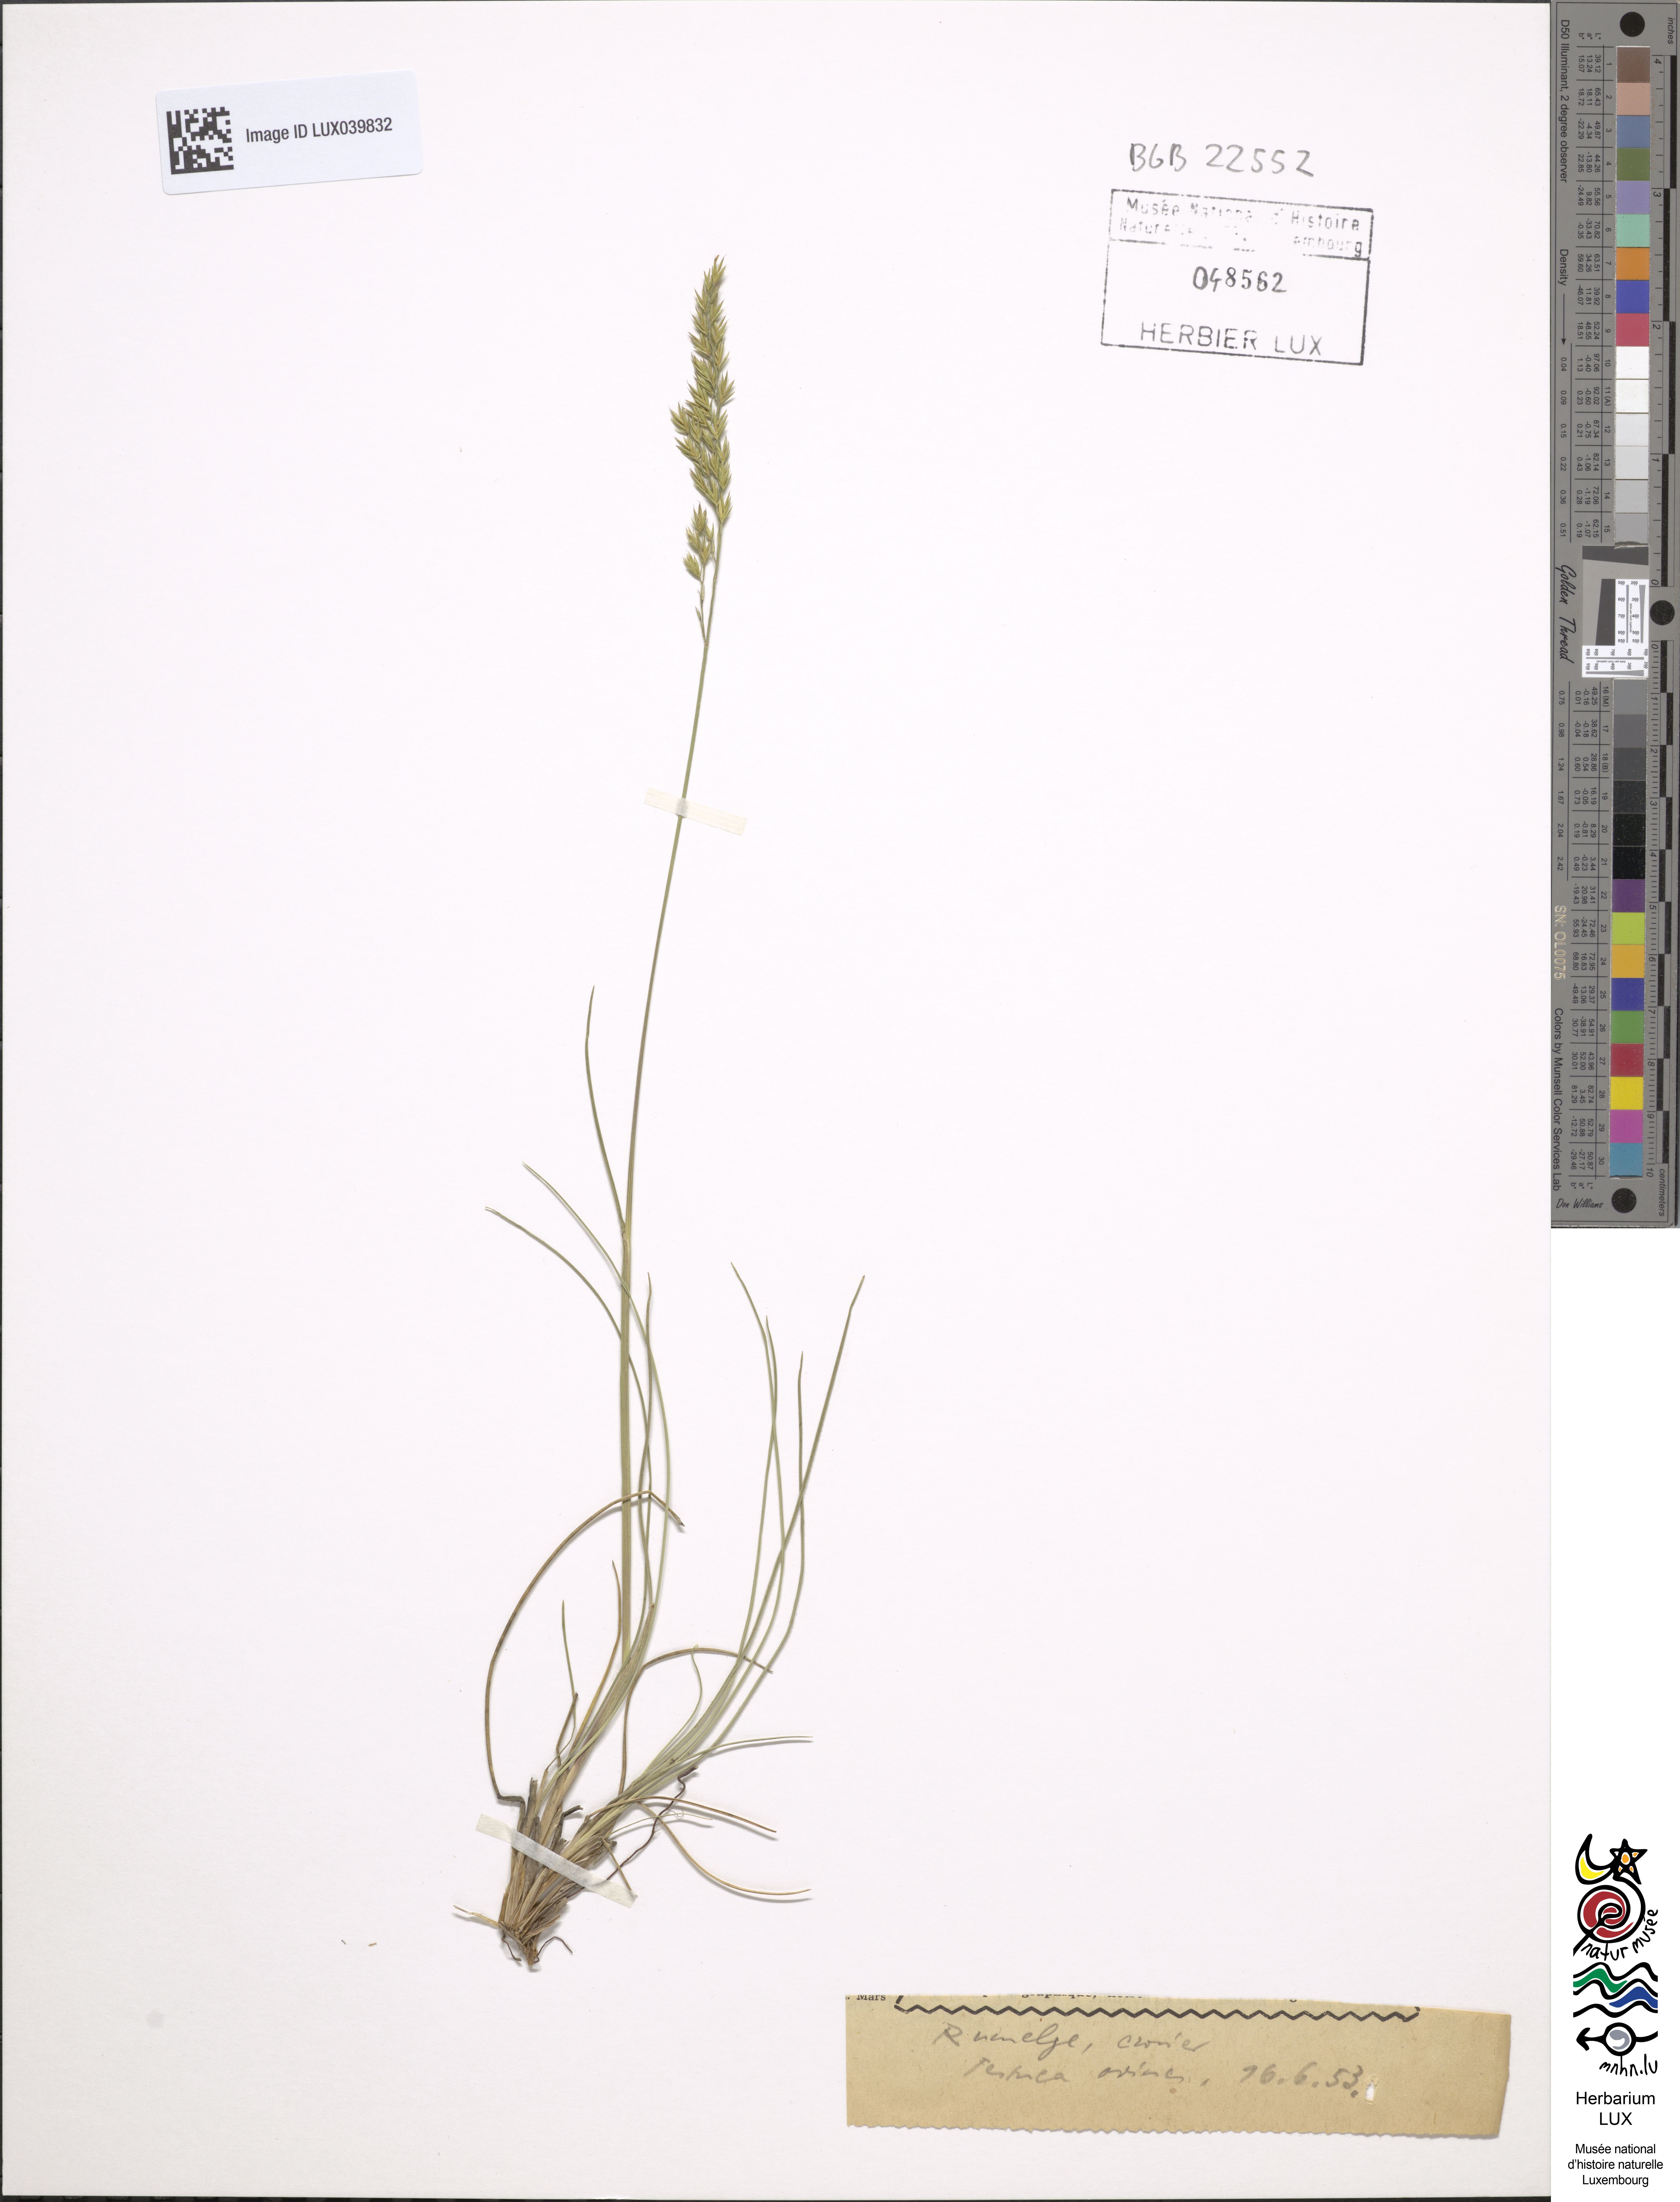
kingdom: Plantae
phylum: Tracheophyta
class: Liliopsida
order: Poales
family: Poaceae
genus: Festuca
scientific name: Festuca ovina
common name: Sheep fescue
